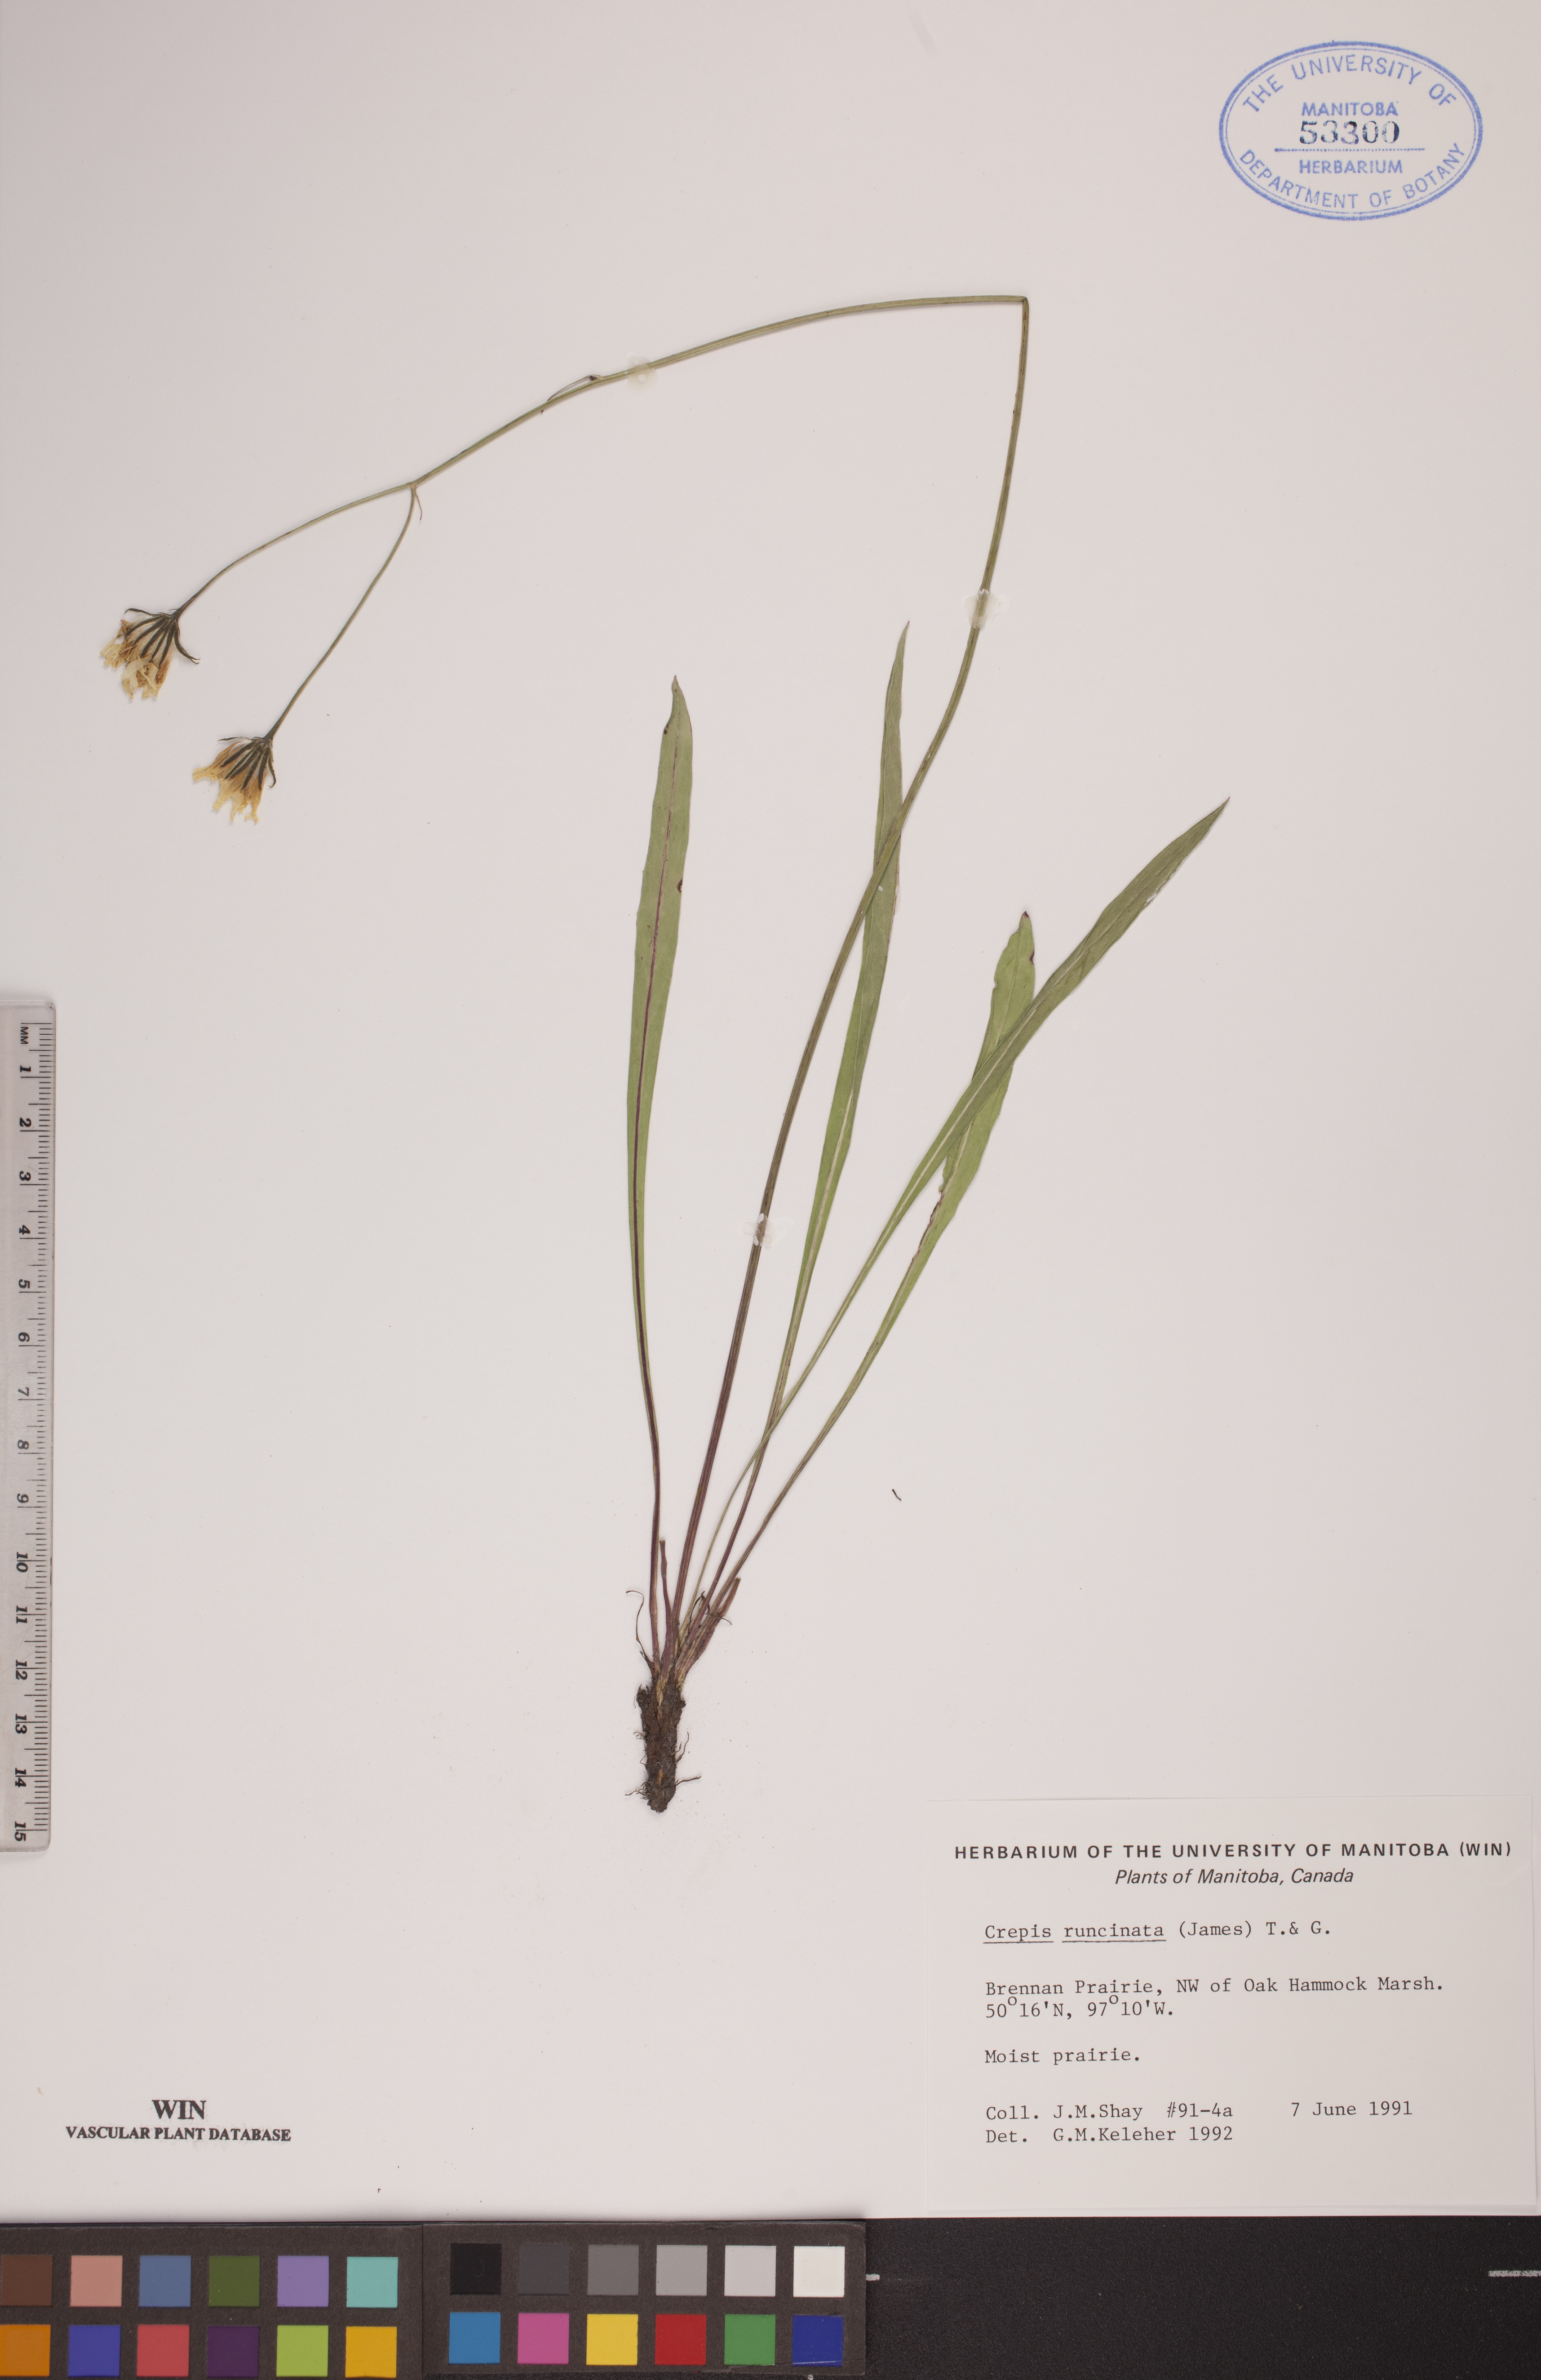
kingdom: Plantae
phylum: Tracheophyta
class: Magnoliopsida
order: Asterales
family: Asteraceae
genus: Crepis
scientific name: Crepis runcinata
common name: Dandelion hawksbeard
